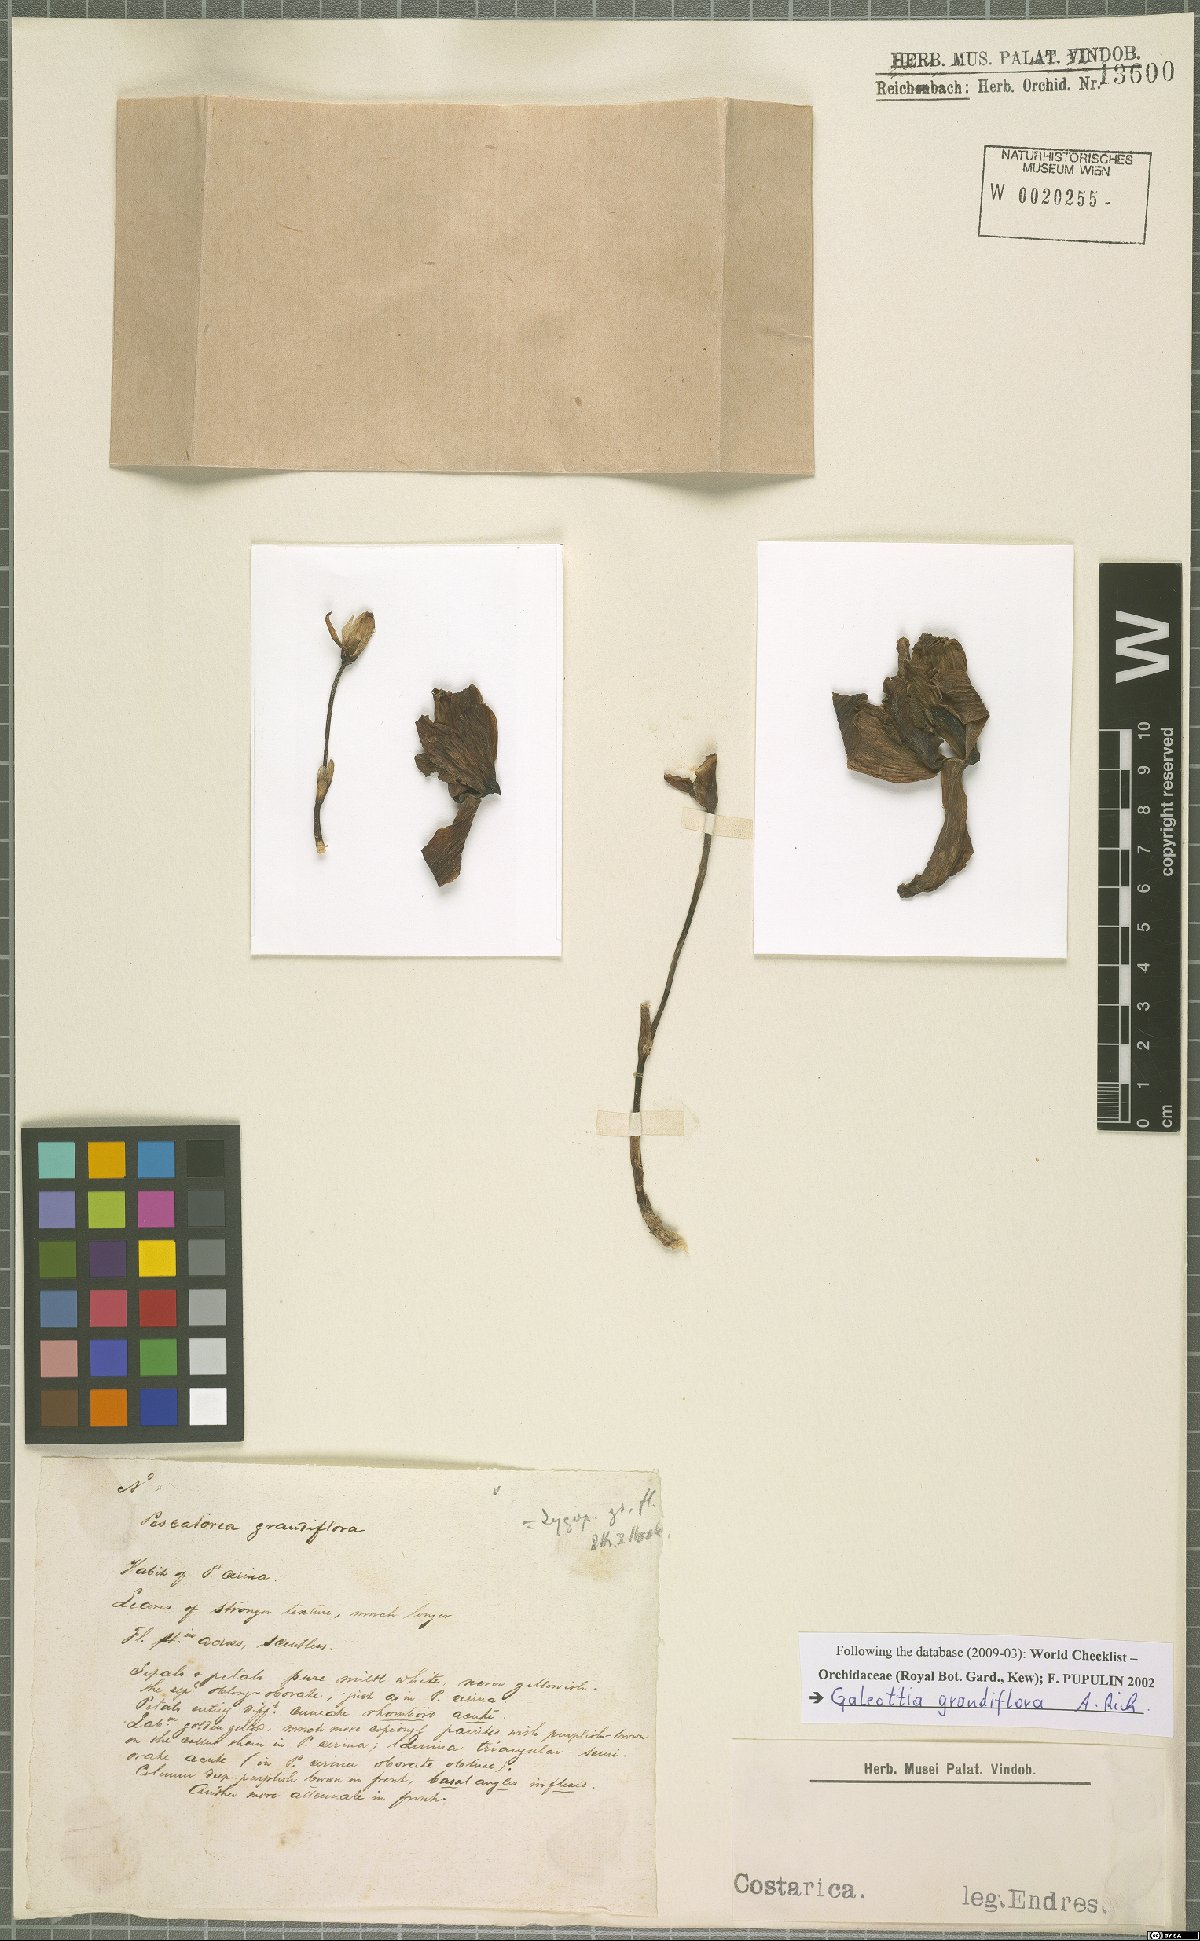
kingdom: Plantae
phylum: Tracheophyta
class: Liliopsida
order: Asparagales
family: Orchidaceae
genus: Pescatoria
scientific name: Pescatoria cerina
